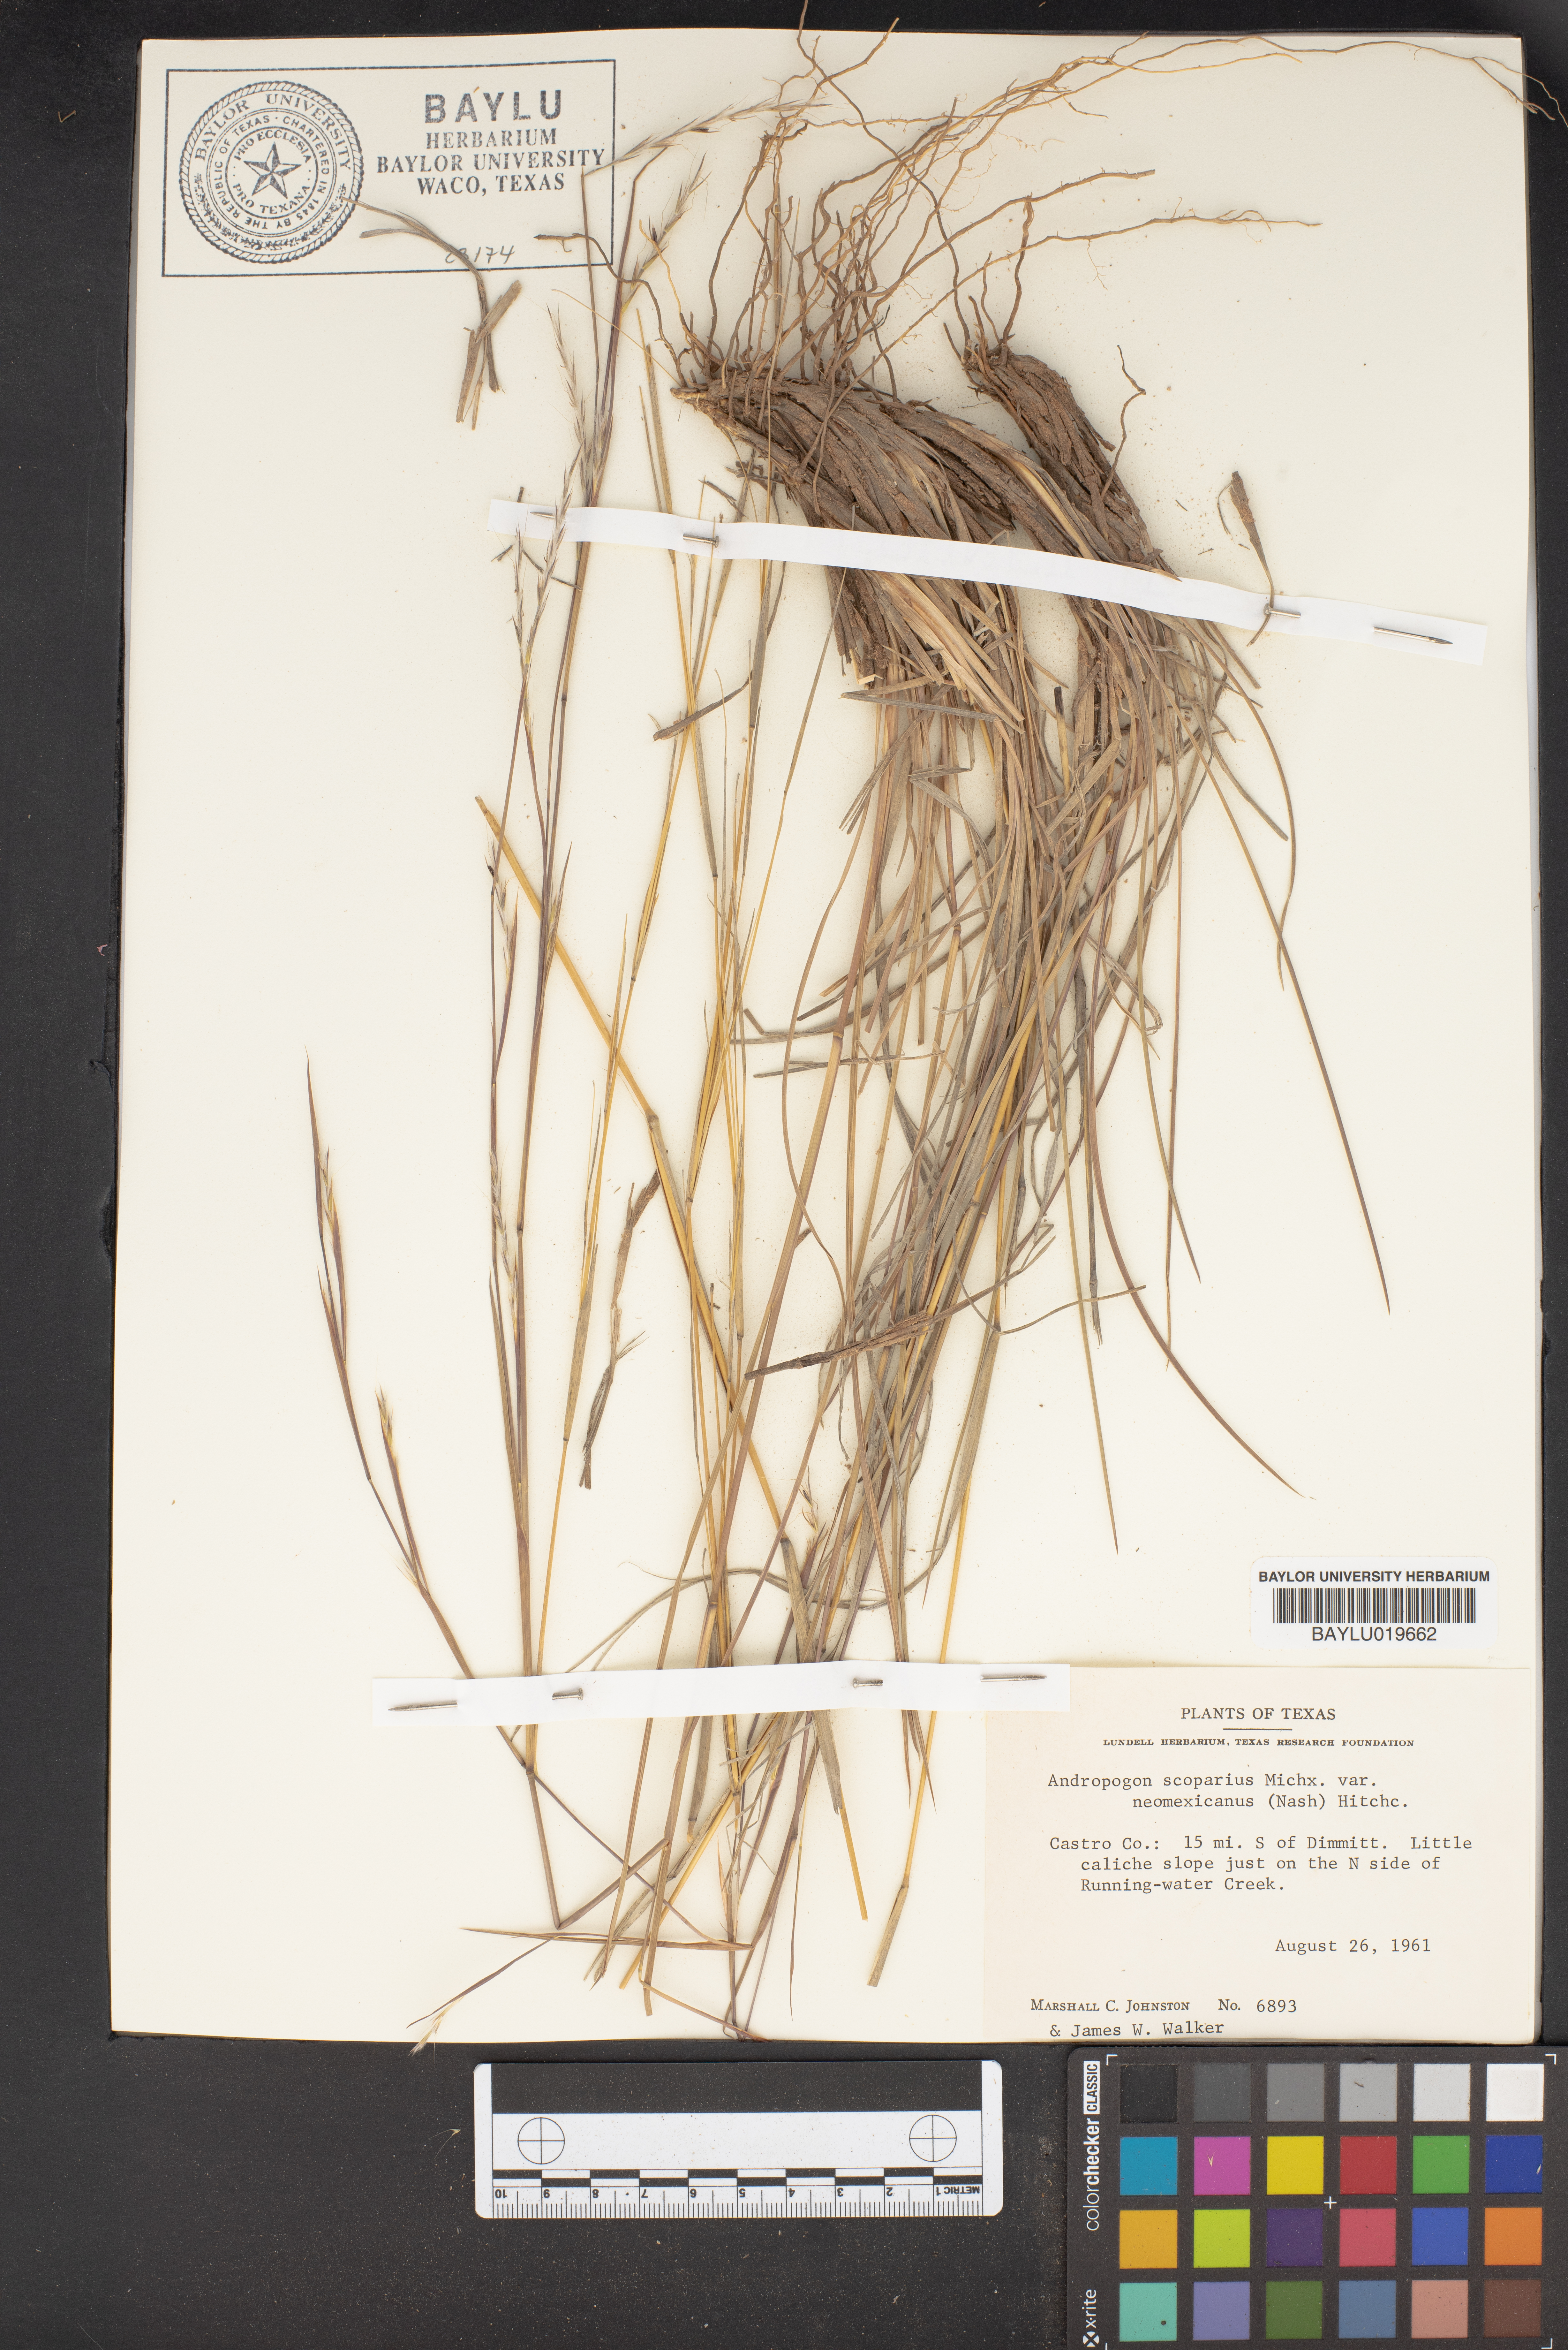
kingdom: Plantae
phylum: Tracheophyta
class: Liliopsida
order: Poales
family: Poaceae
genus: Schizachyrium
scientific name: Schizachyrium scoparium
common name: Little bluestem
